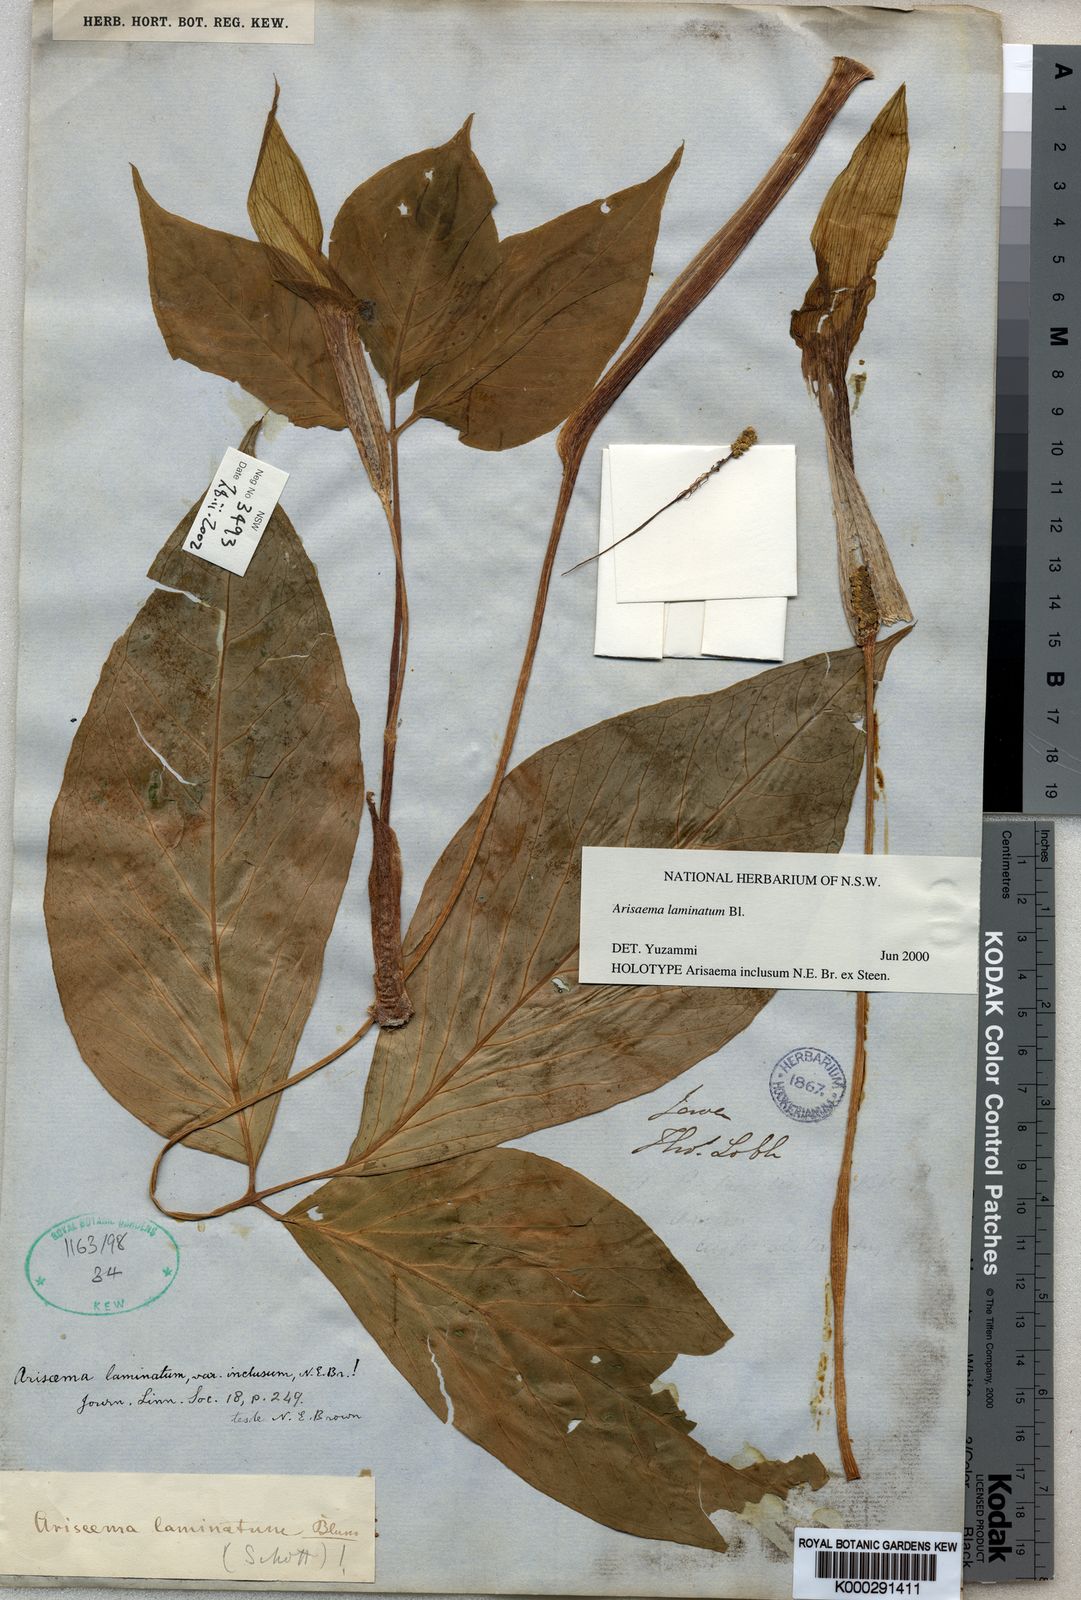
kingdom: Plantae
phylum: Tracheophyta
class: Liliopsida
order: Alismatales
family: Araceae
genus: Arisaema
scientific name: Arisaema
